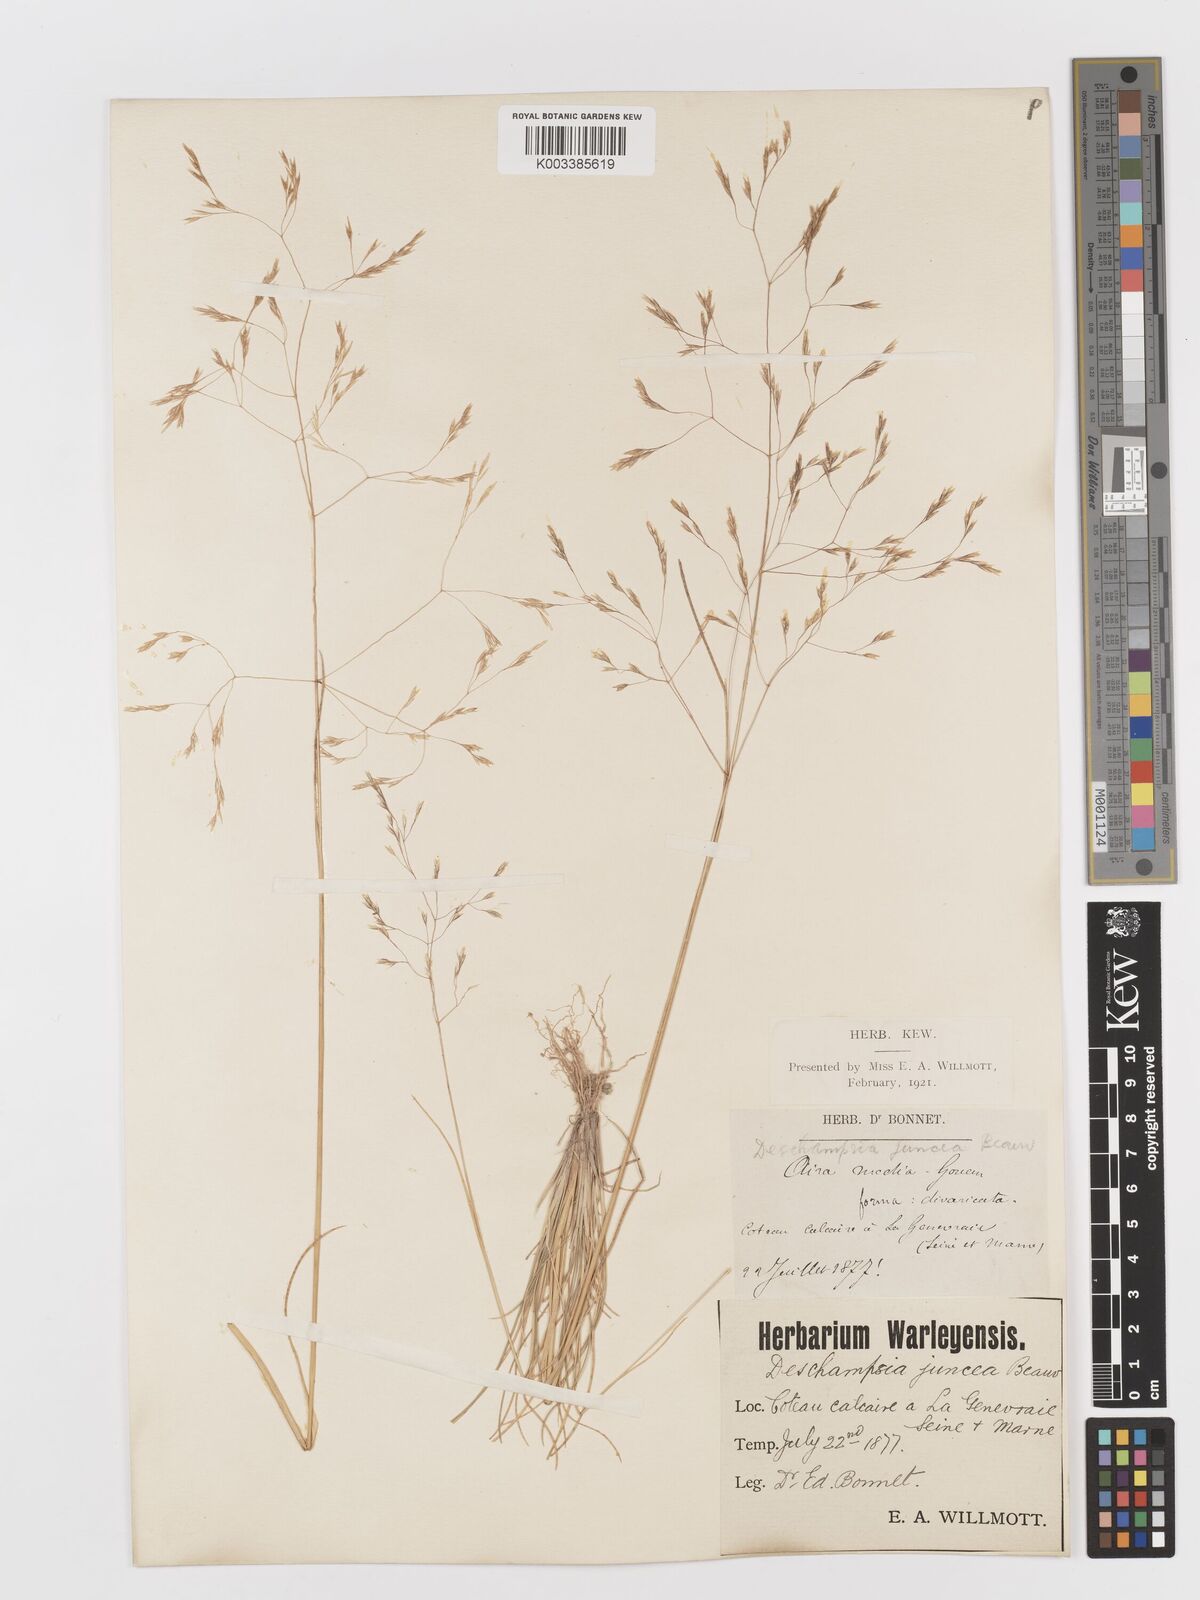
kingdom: Plantae
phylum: Tracheophyta
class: Liliopsida
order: Poales
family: Poaceae
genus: Deschampsia
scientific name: Deschampsia media
